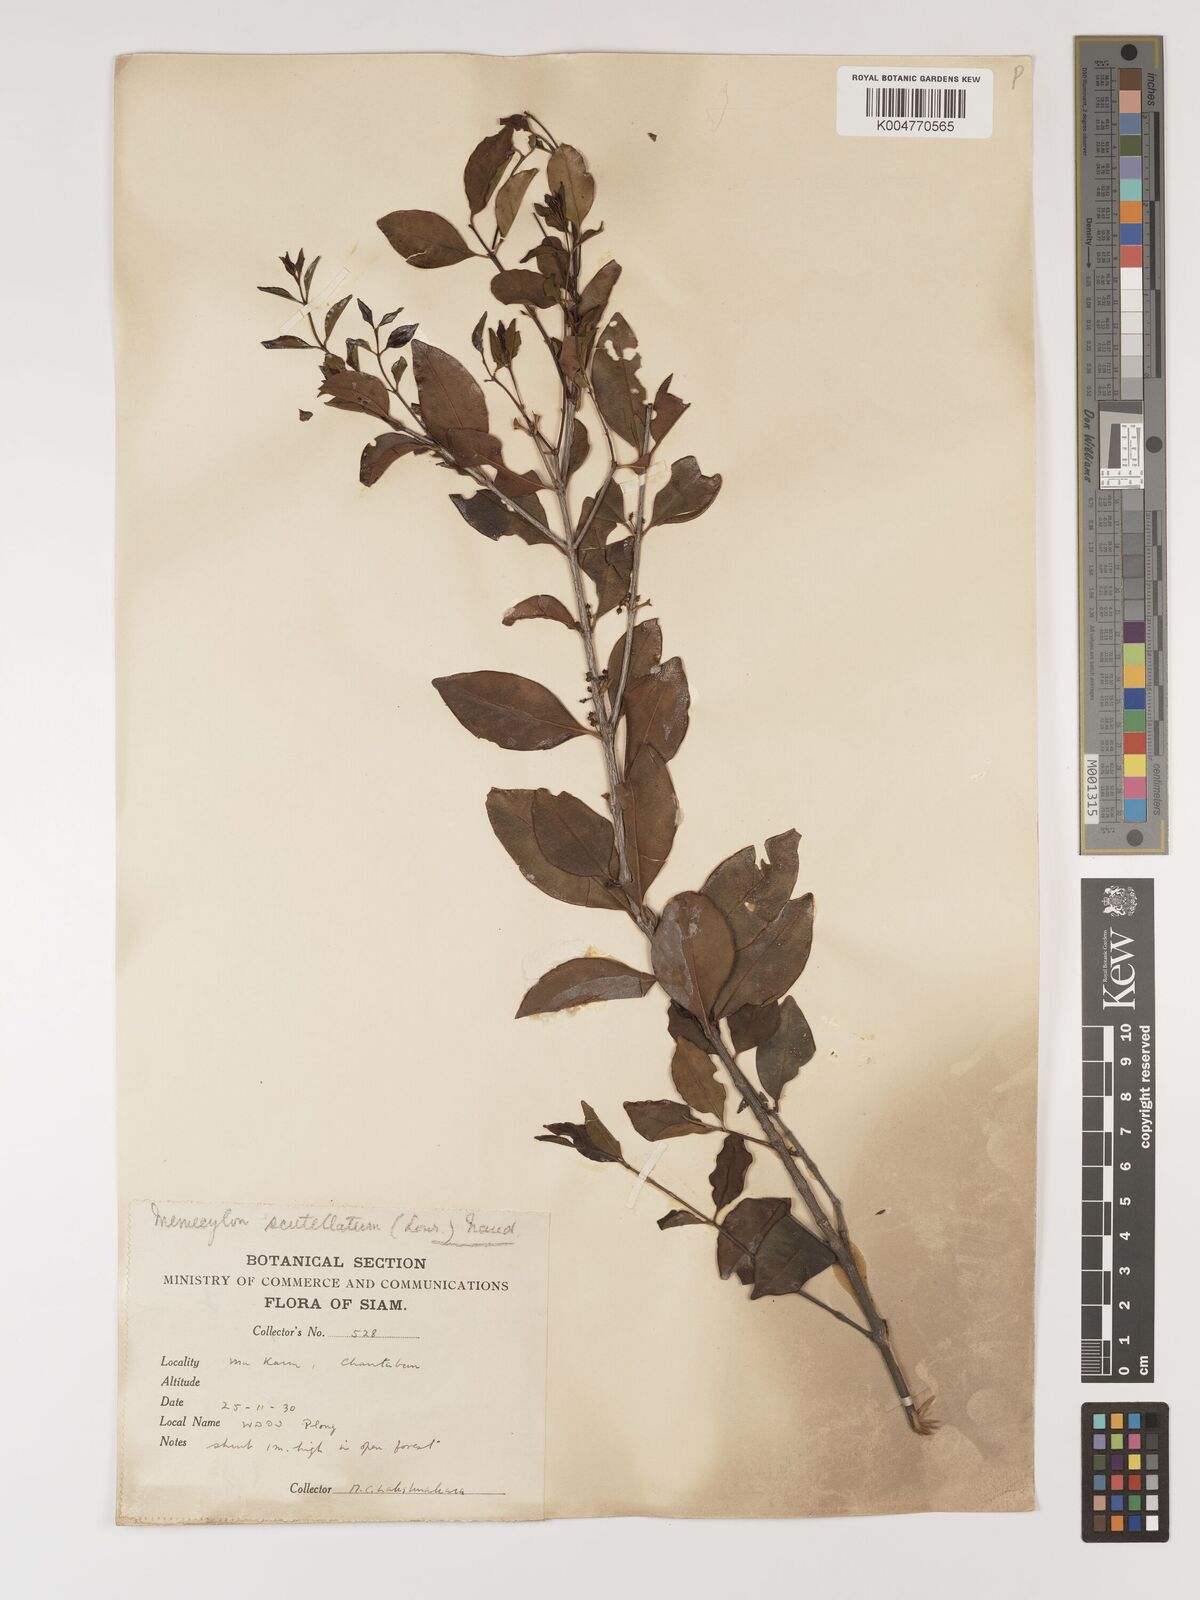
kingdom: Plantae
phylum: Tracheophyta
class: Magnoliopsida
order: Myrtales
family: Melastomataceae
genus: Memecylon
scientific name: Memecylon scutellatum
